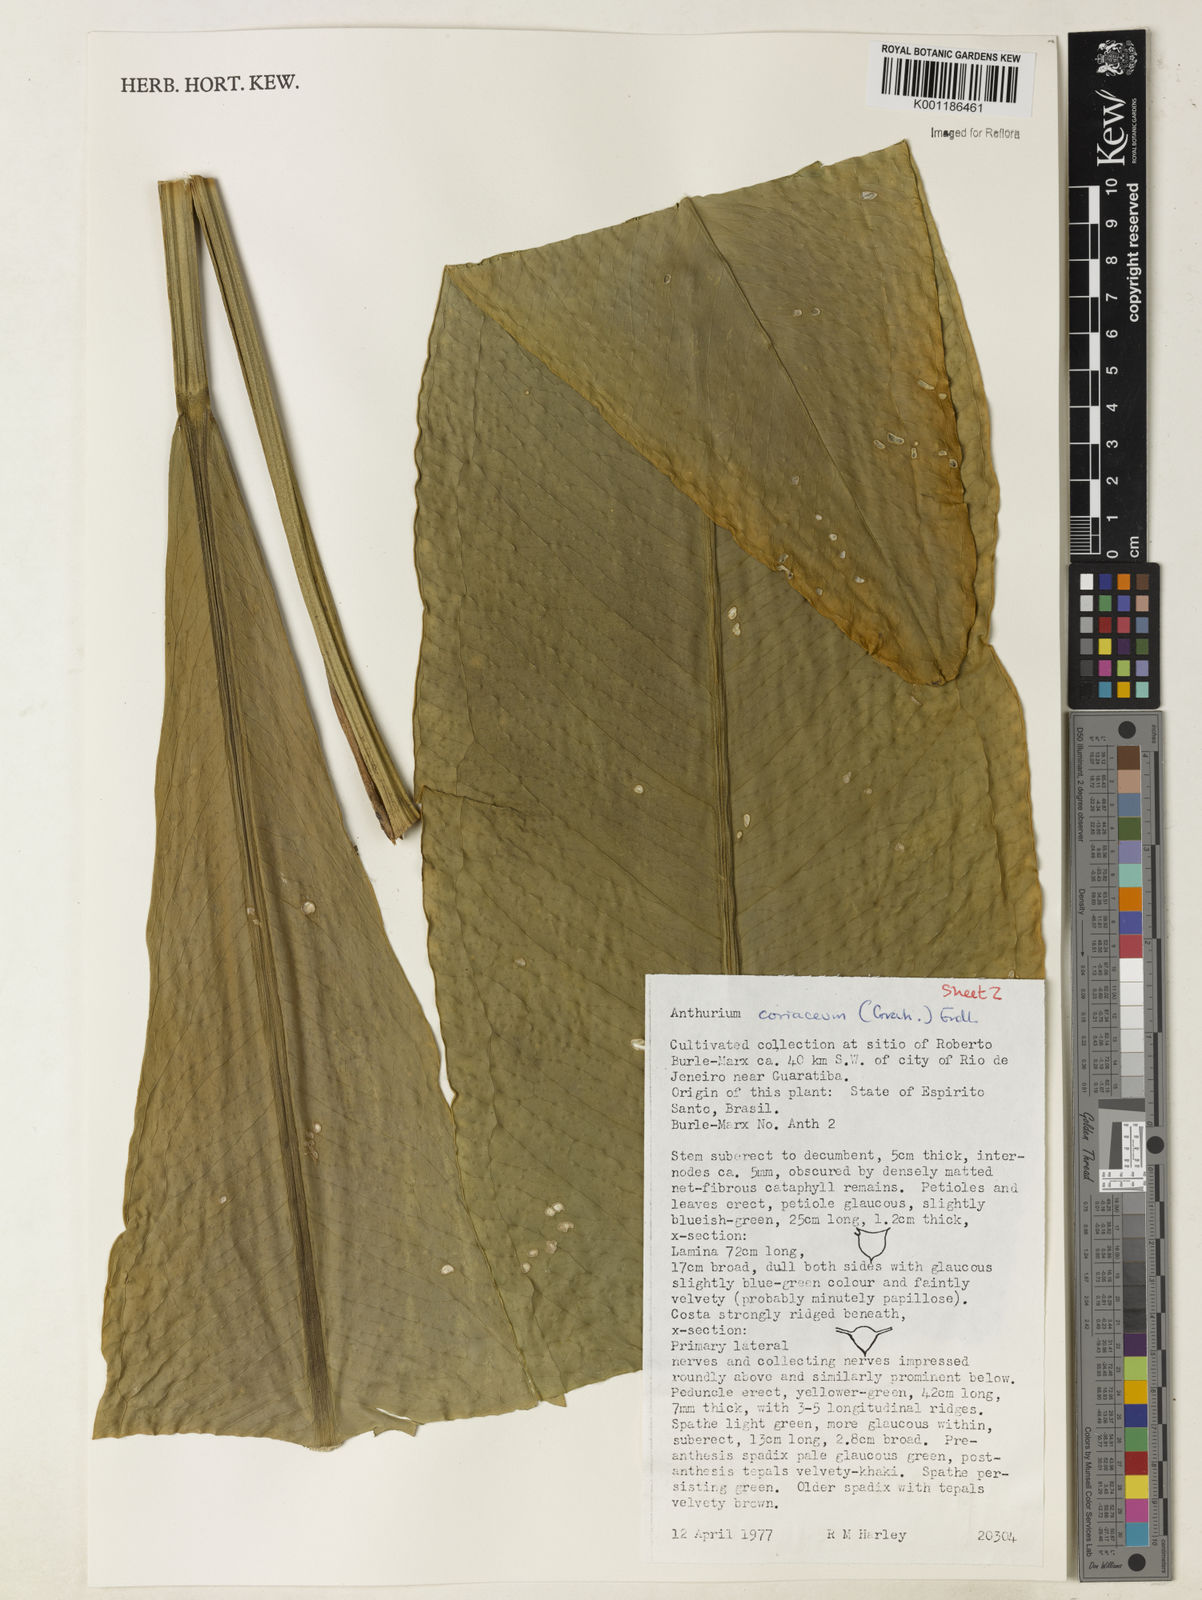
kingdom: Plantae
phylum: Tracheophyta
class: Liliopsida
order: Alismatales
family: Araceae
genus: Anthurium
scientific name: Anthurium coriaceum
